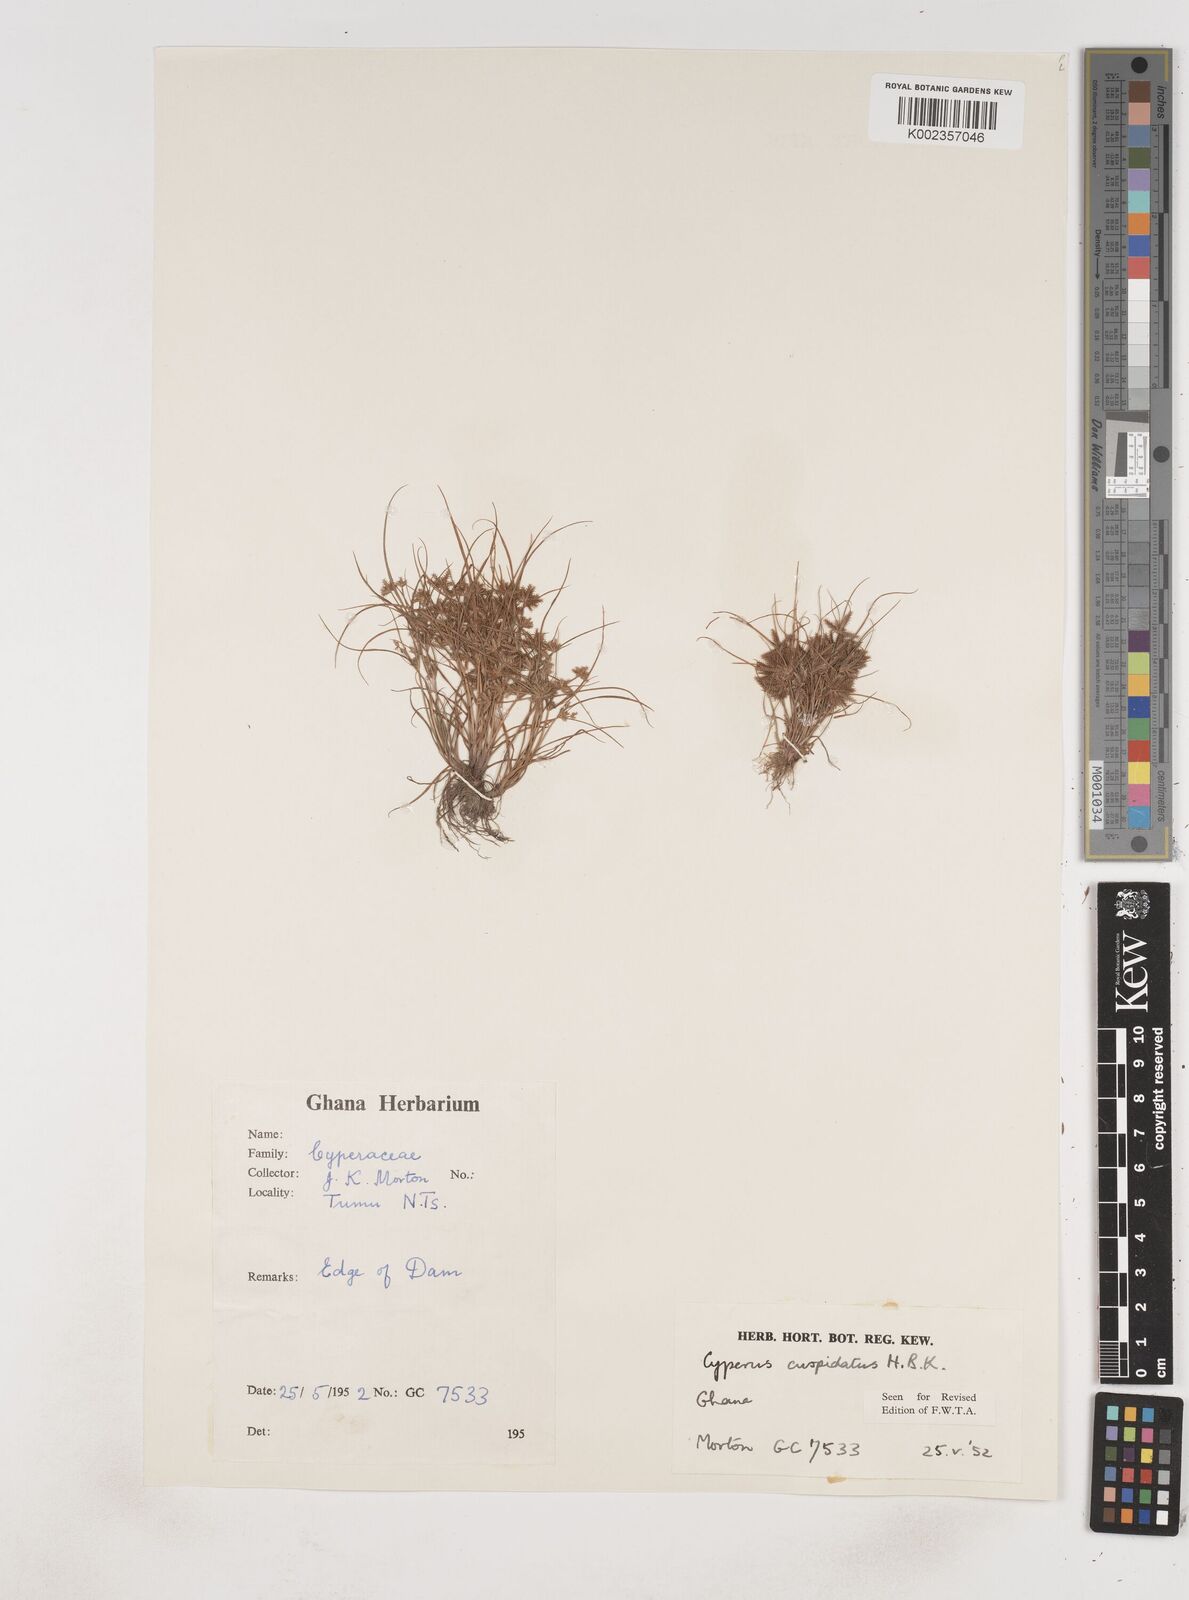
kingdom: Plantae
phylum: Tracheophyta
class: Liliopsida
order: Poales
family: Cyperaceae
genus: Cyperus
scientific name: Cyperus
